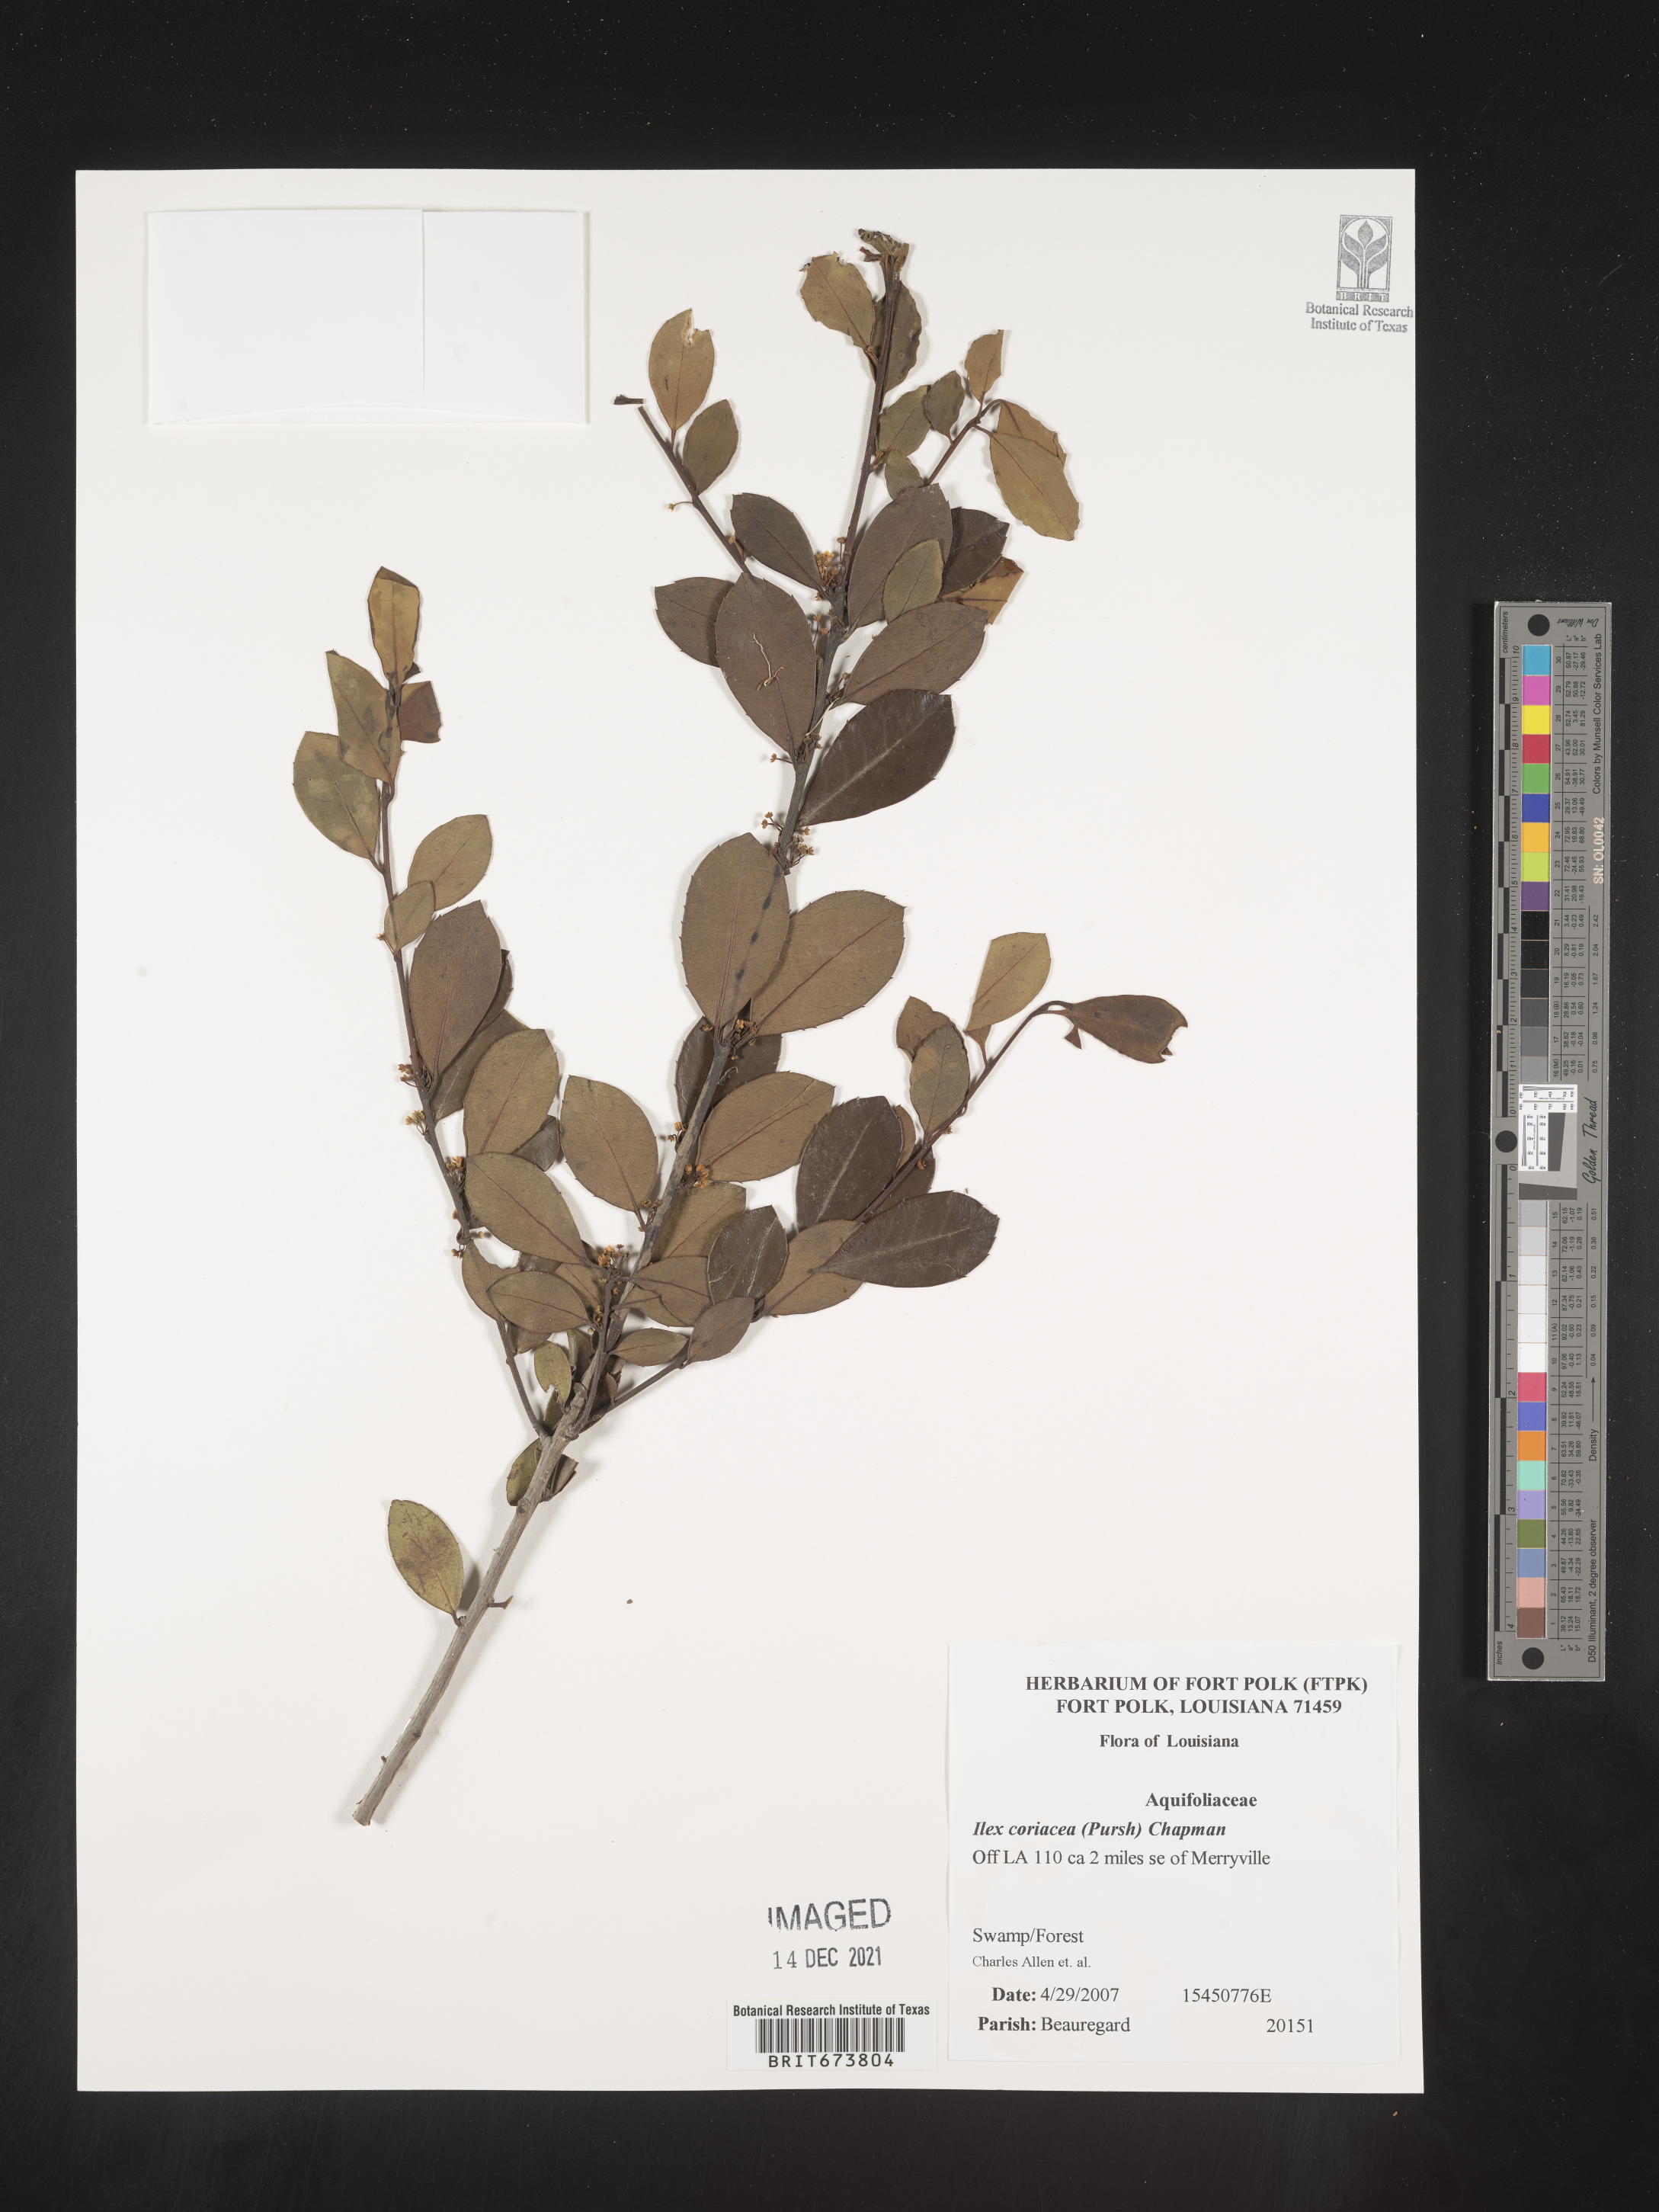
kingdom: Plantae
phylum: Tracheophyta
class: Magnoliopsida
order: Aquifoliales
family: Aquifoliaceae
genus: Ilex
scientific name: Ilex coriacea
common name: Sweet gallberry
